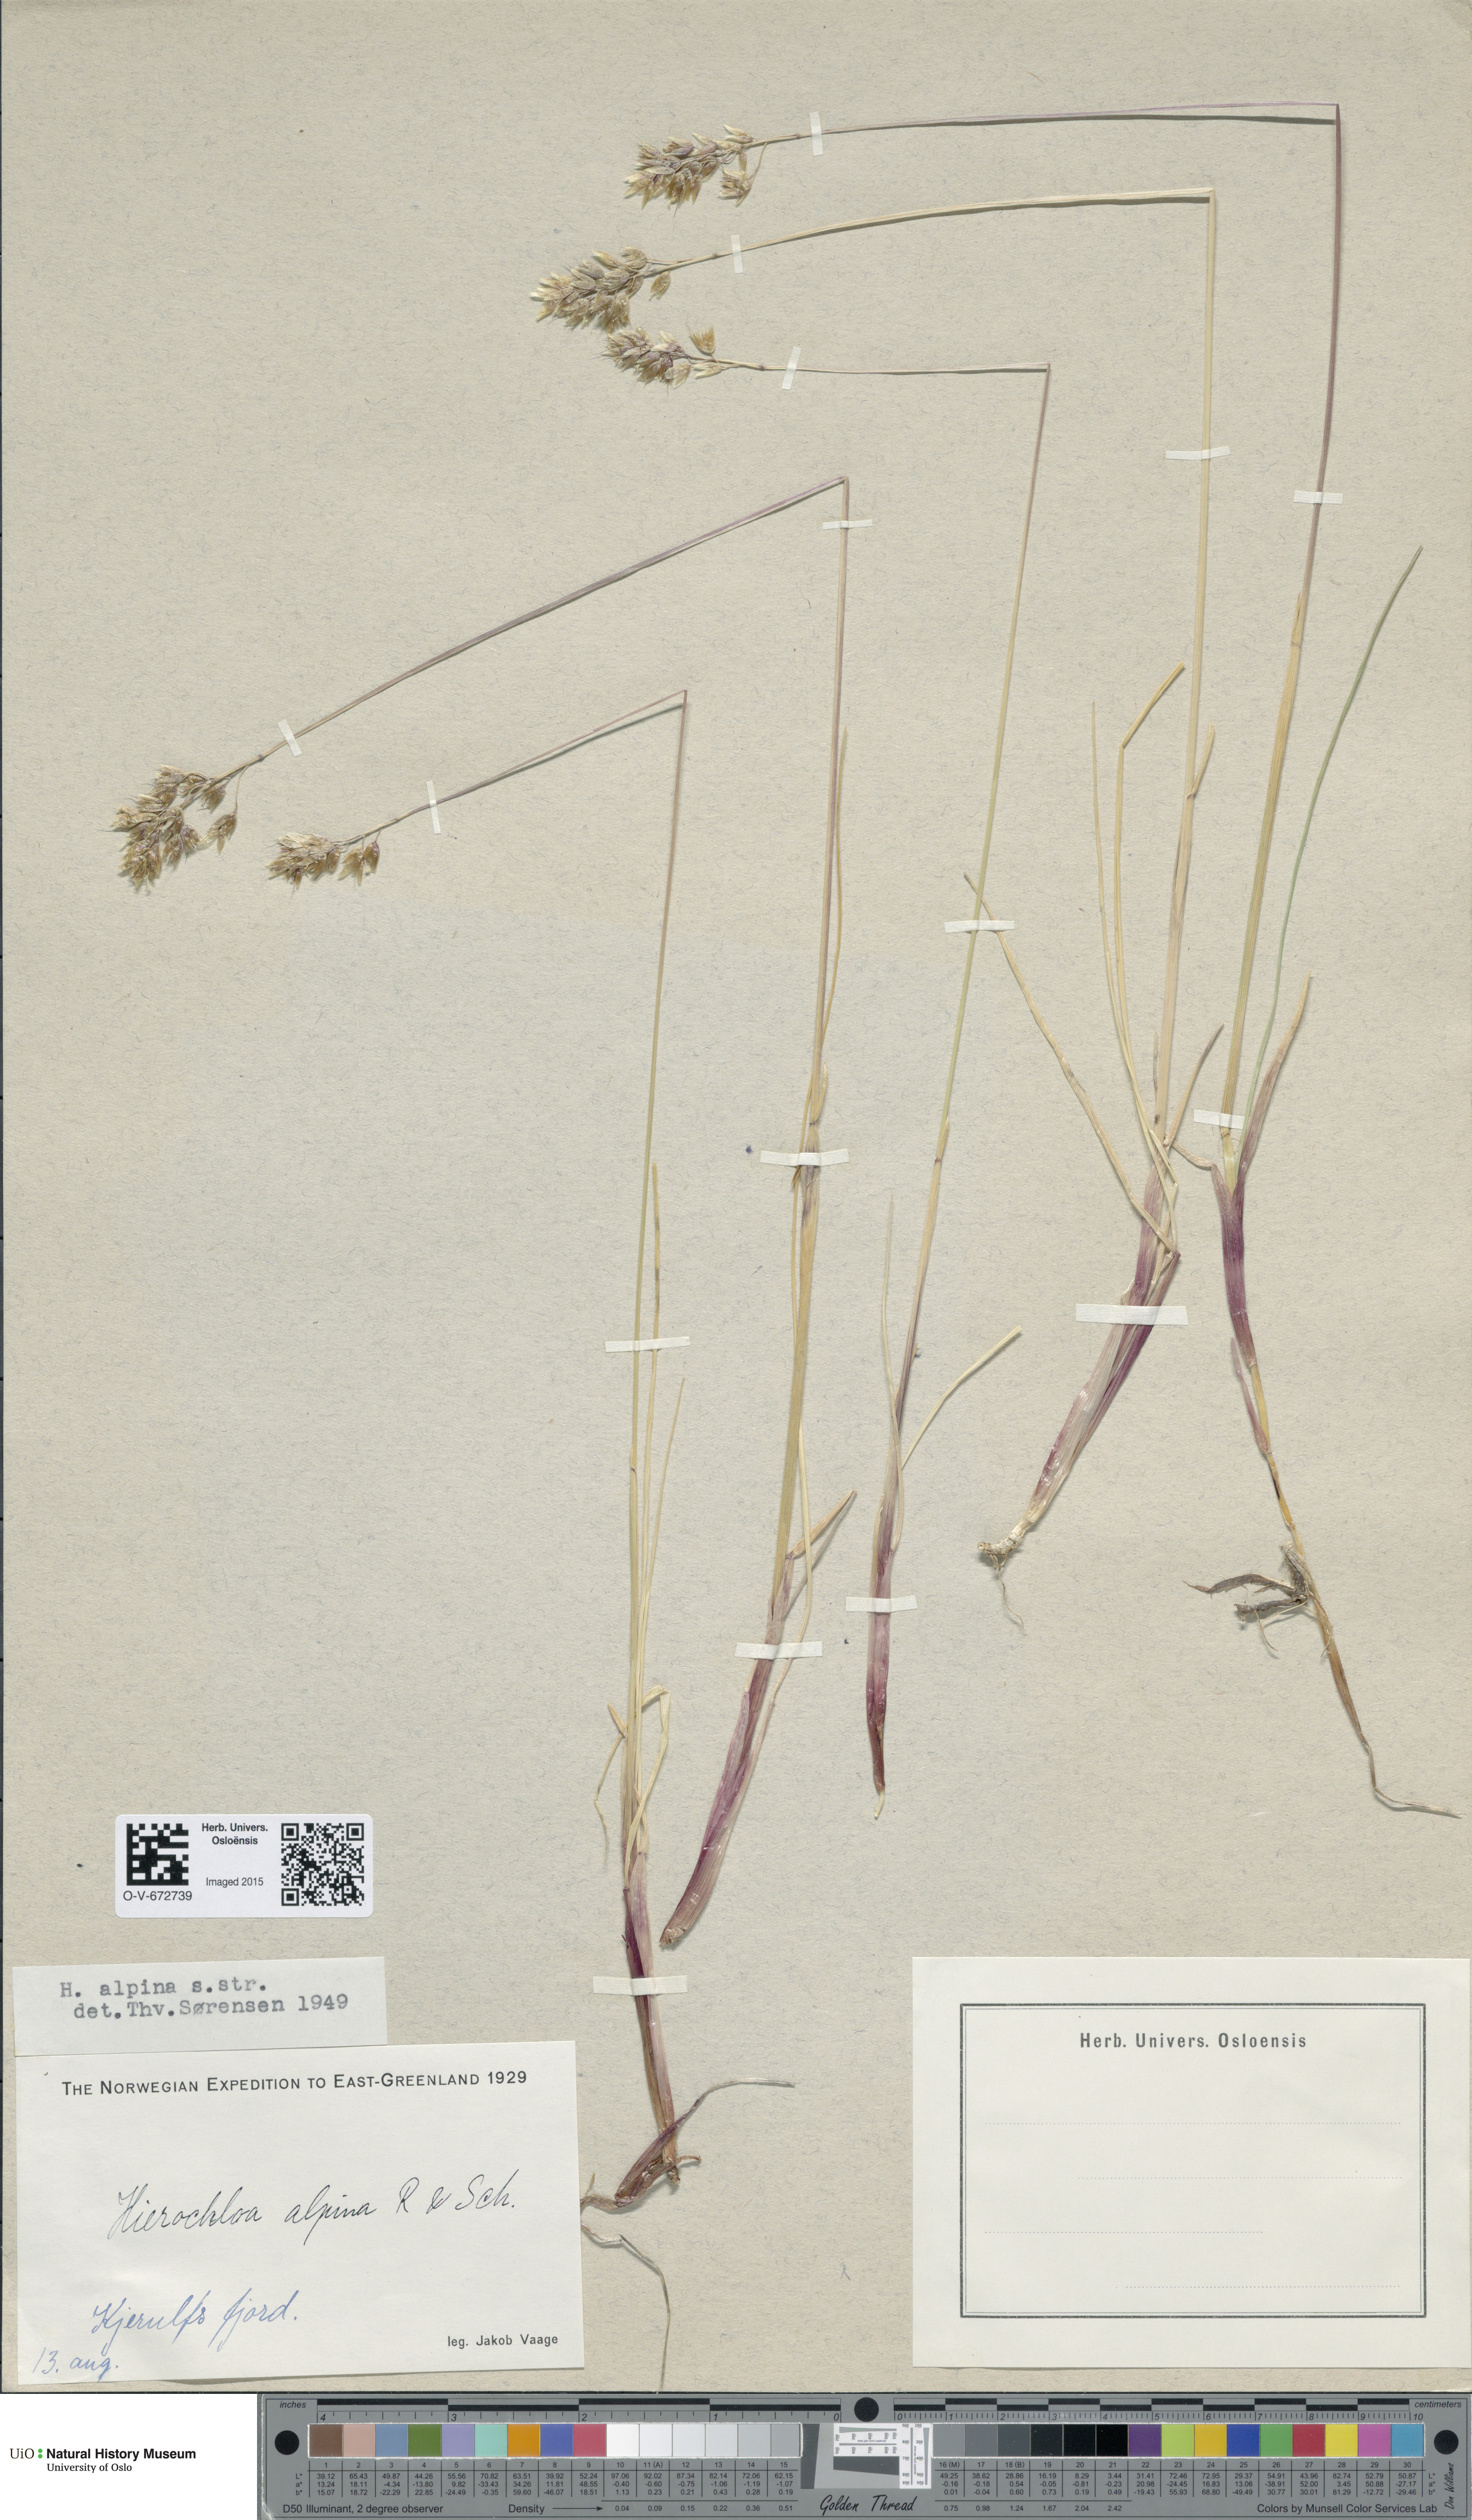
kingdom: Plantae
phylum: Tracheophyta
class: Liliopsida
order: Poales
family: Poaceae
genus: Anthoxanthum
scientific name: Anthoxanthum monticola
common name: Alpine sweetgrass
